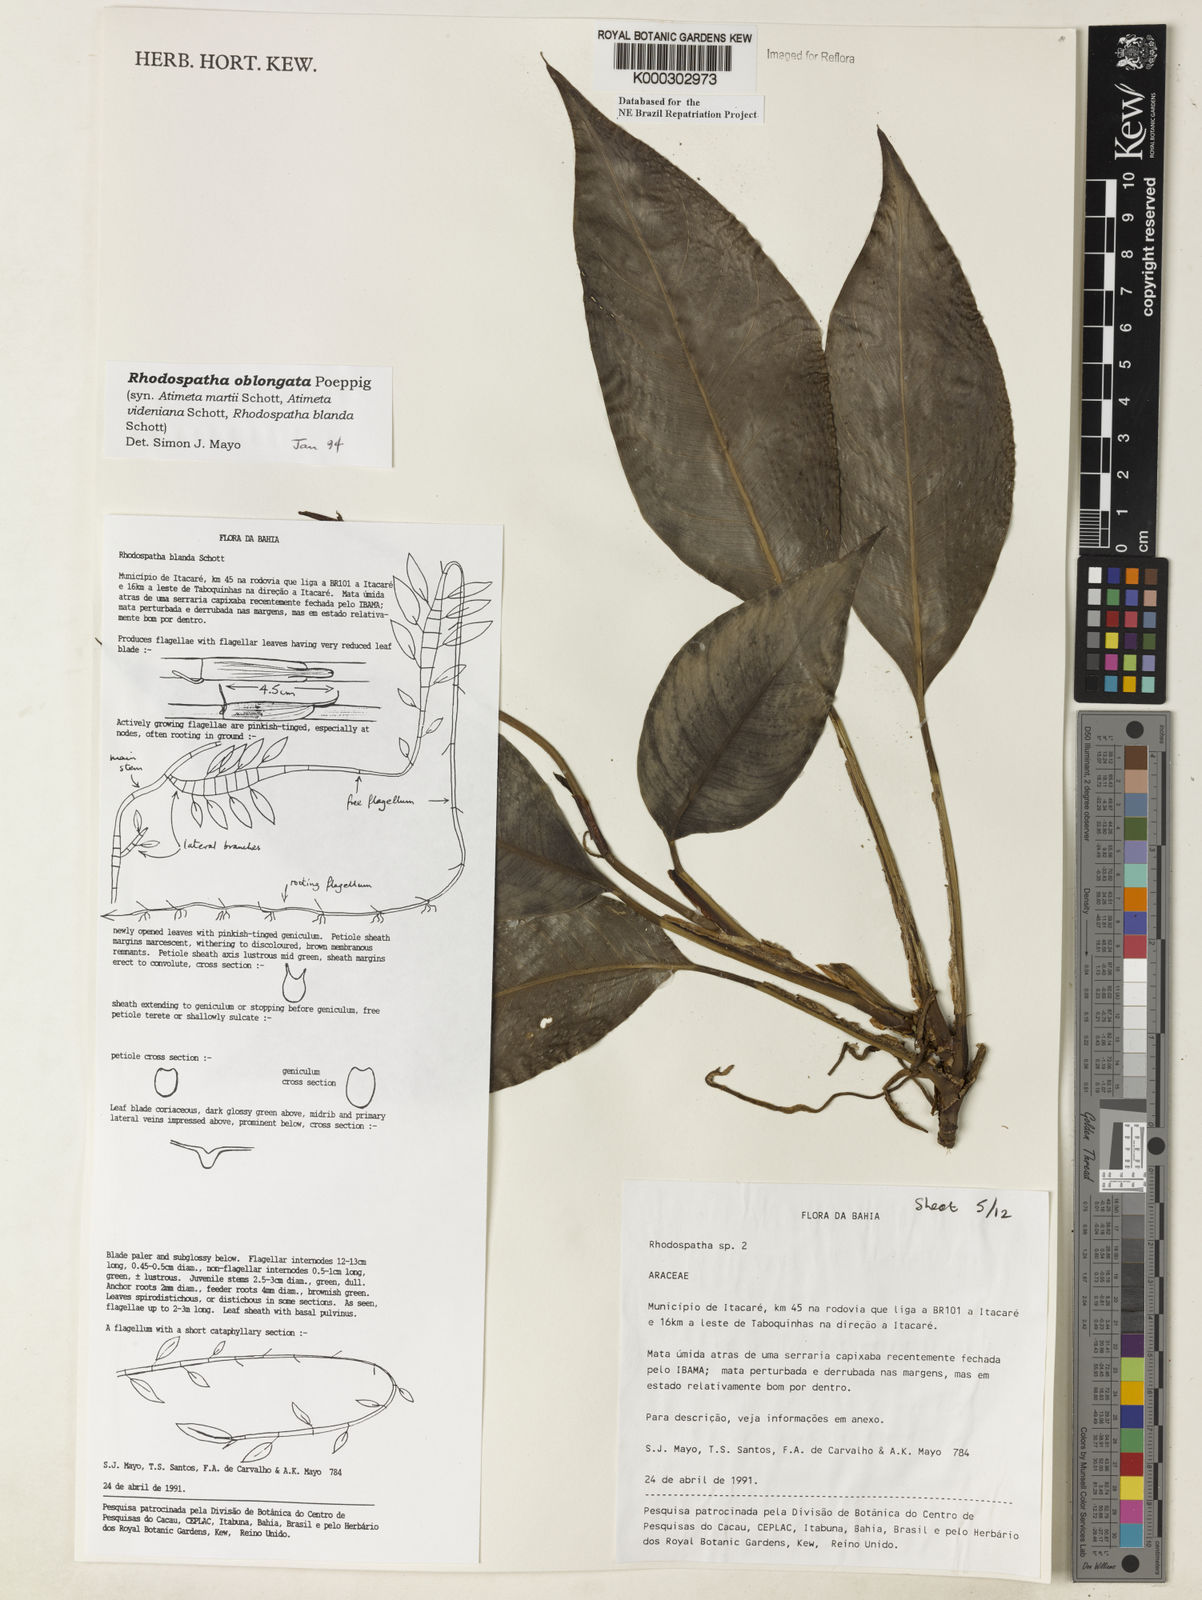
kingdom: Plantae
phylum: Tracheophyta
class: Liliopsida
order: Alismatales
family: Araceae
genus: Rhodospatha
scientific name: Rhodospatha oblongata
